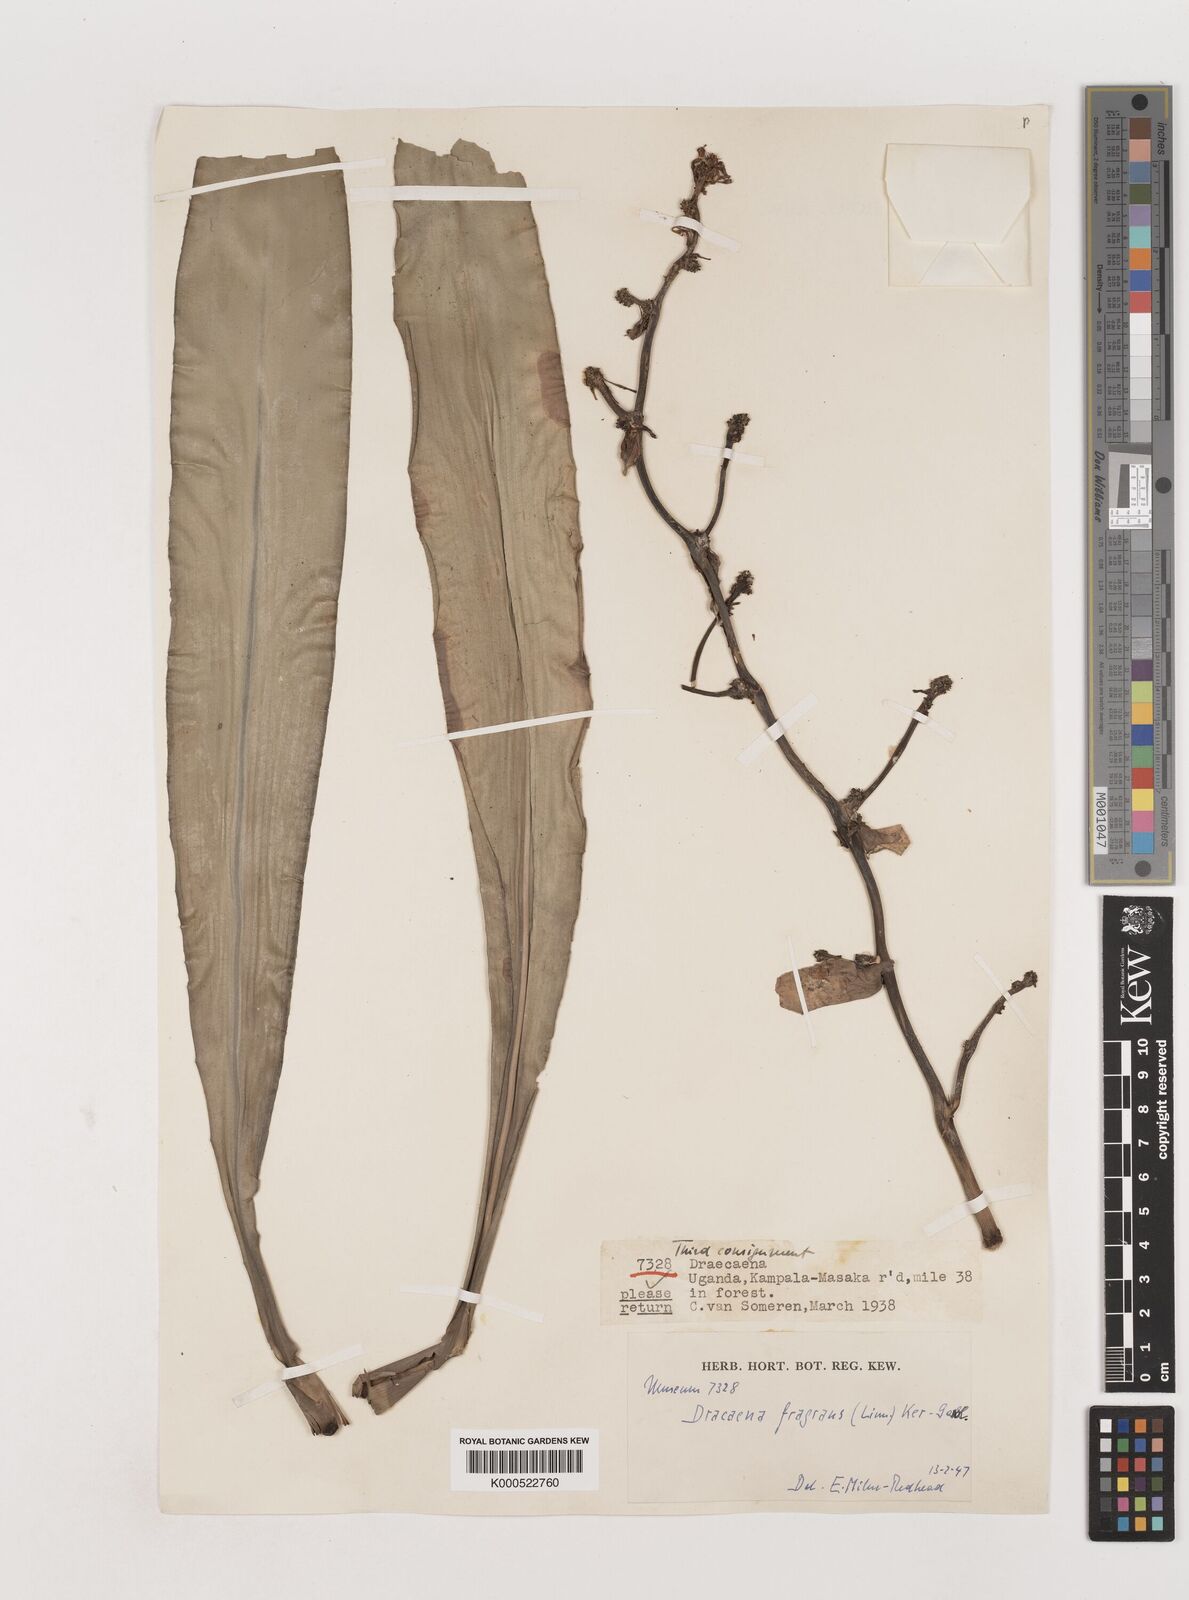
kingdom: Plantae
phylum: Tracheophyta
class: Liliopsida
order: Asparagales
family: Asparagaceae
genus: Dracaena
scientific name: Dracaena fragrans
